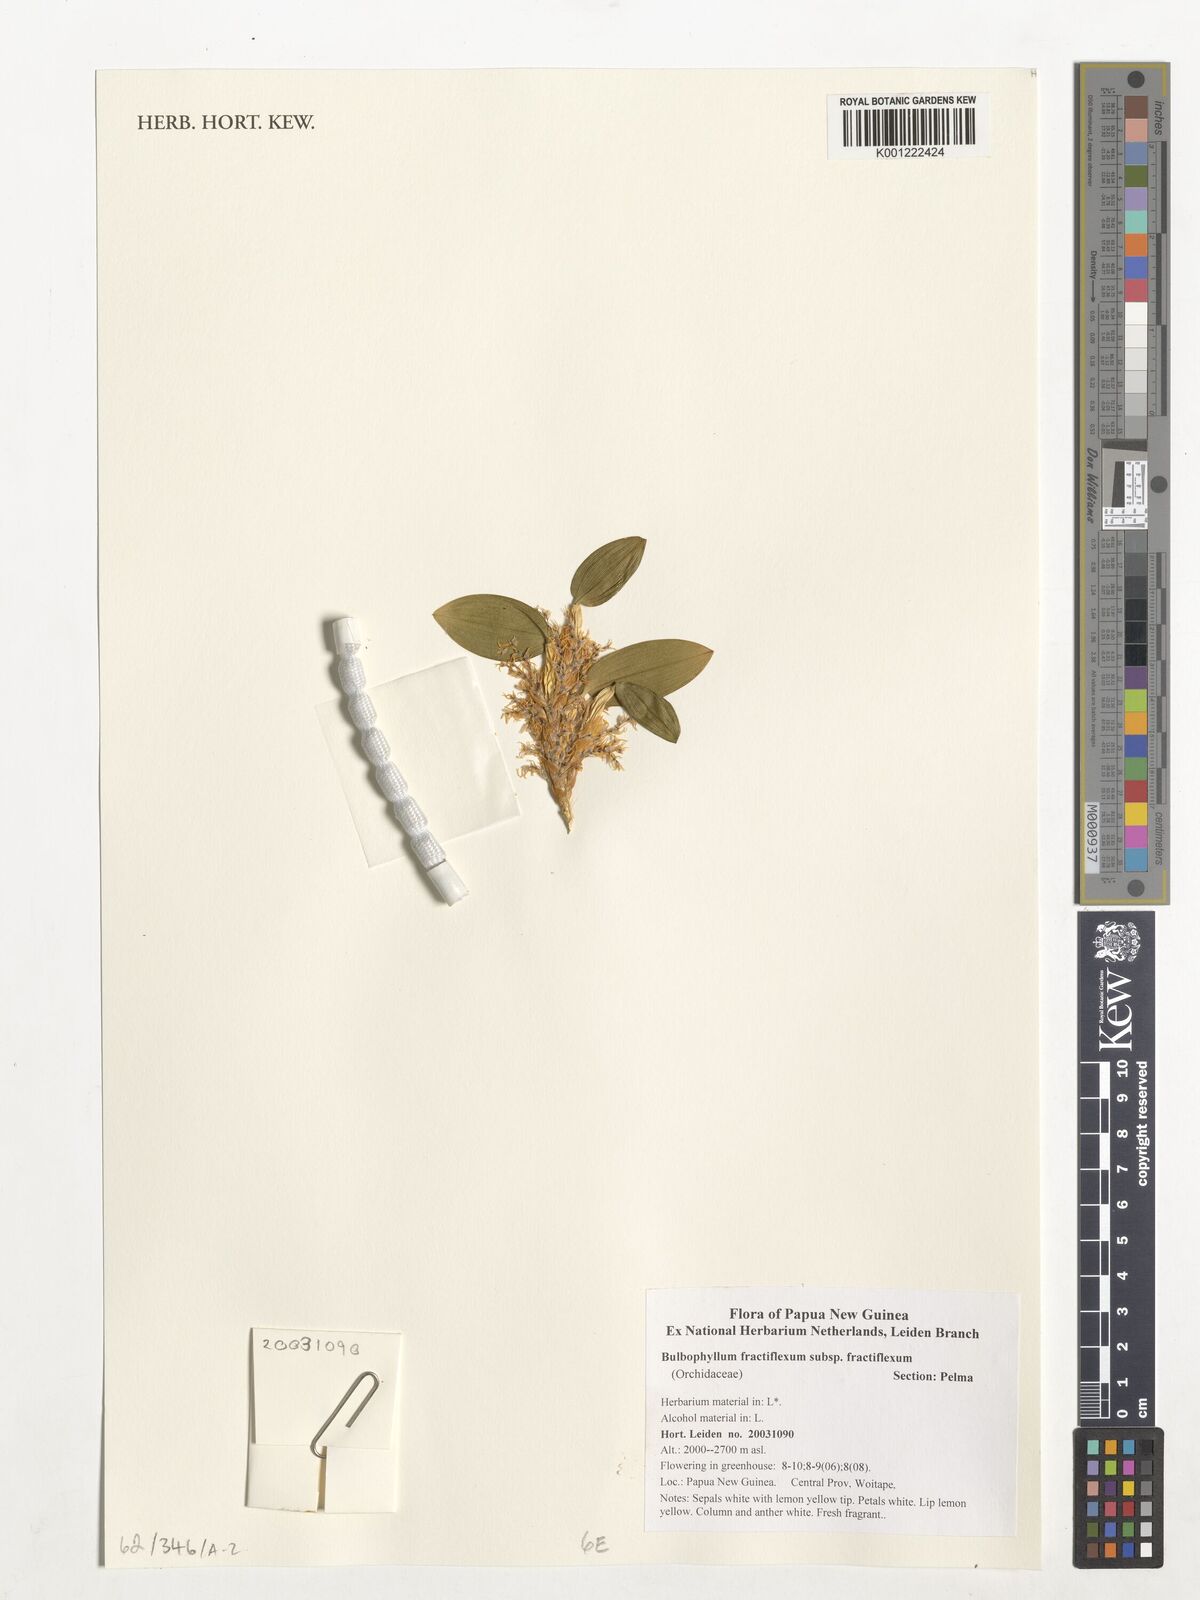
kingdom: Plantae
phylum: Tracheophyta
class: Liliopsida
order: Asparagales
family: Orchidaceae
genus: Bulbophyllum
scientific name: Bulbophyllum fractiflexum
